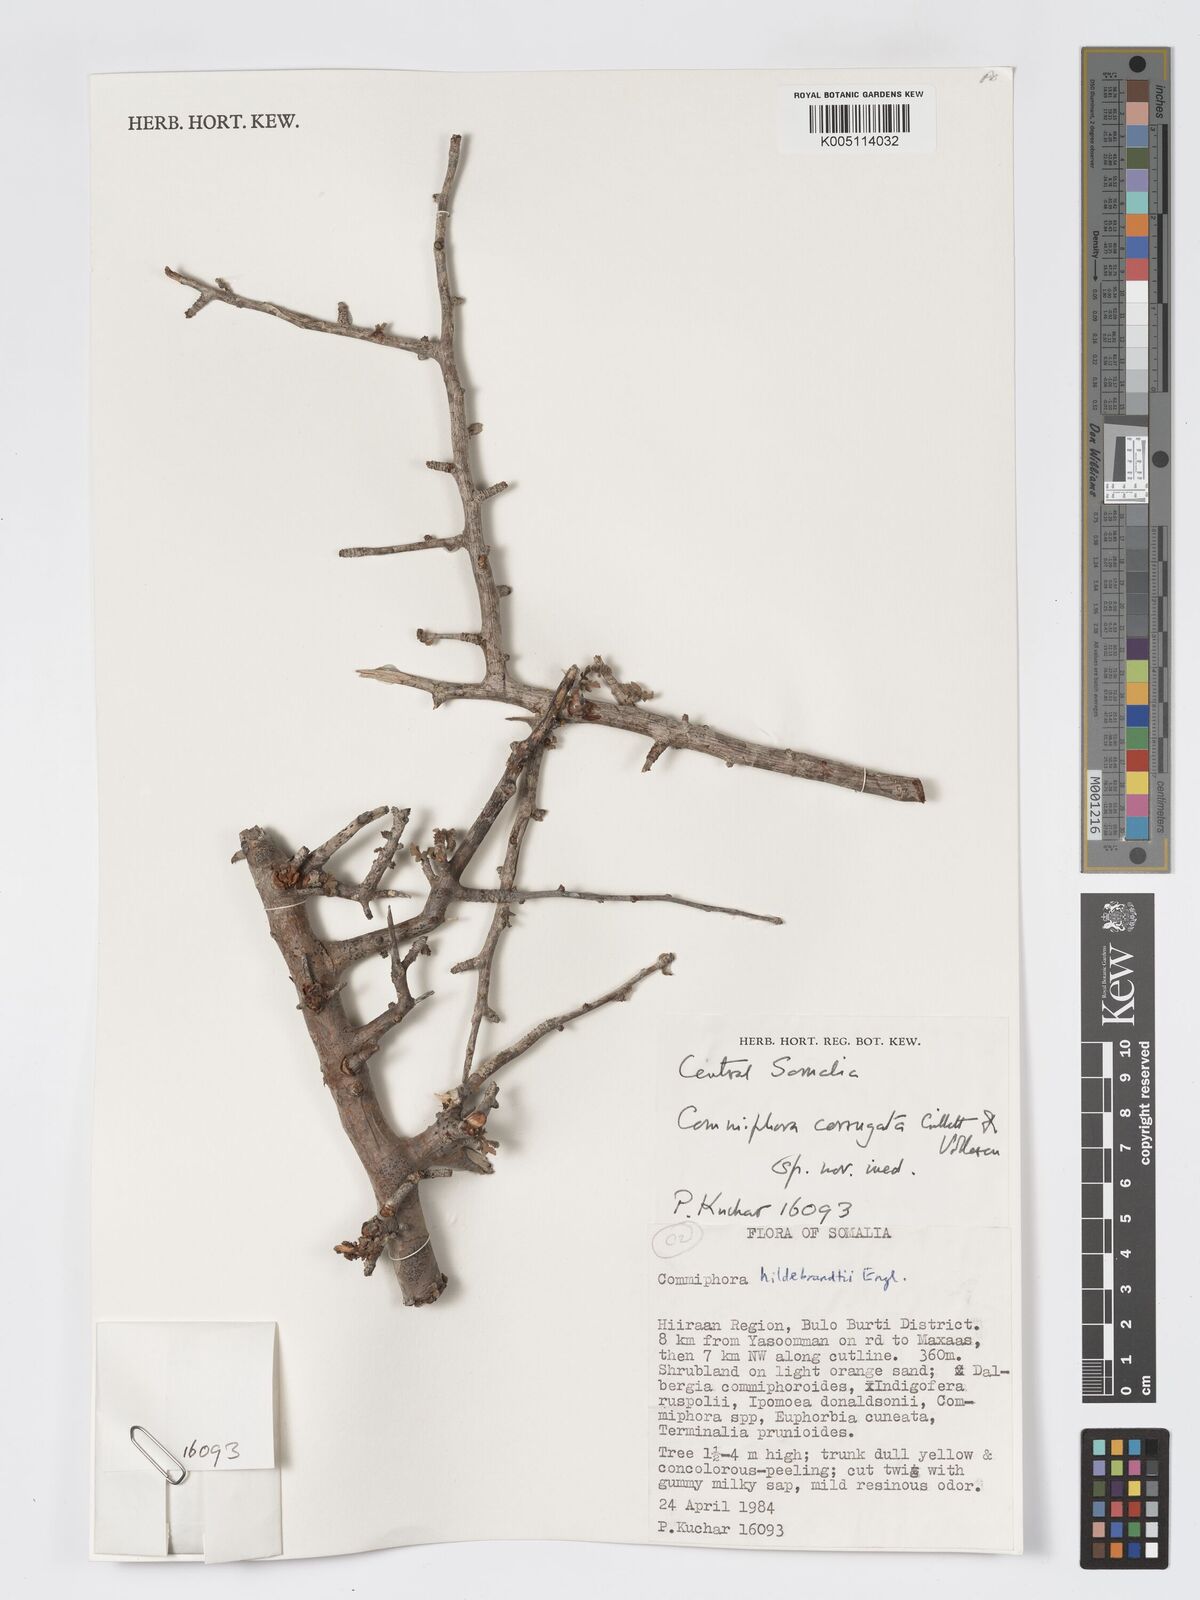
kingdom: Plantae
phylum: Tracheophyta
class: Magnoliopsida
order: Sapindales
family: Burseraceae
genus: Commiphora
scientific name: Commiphora corrugata
